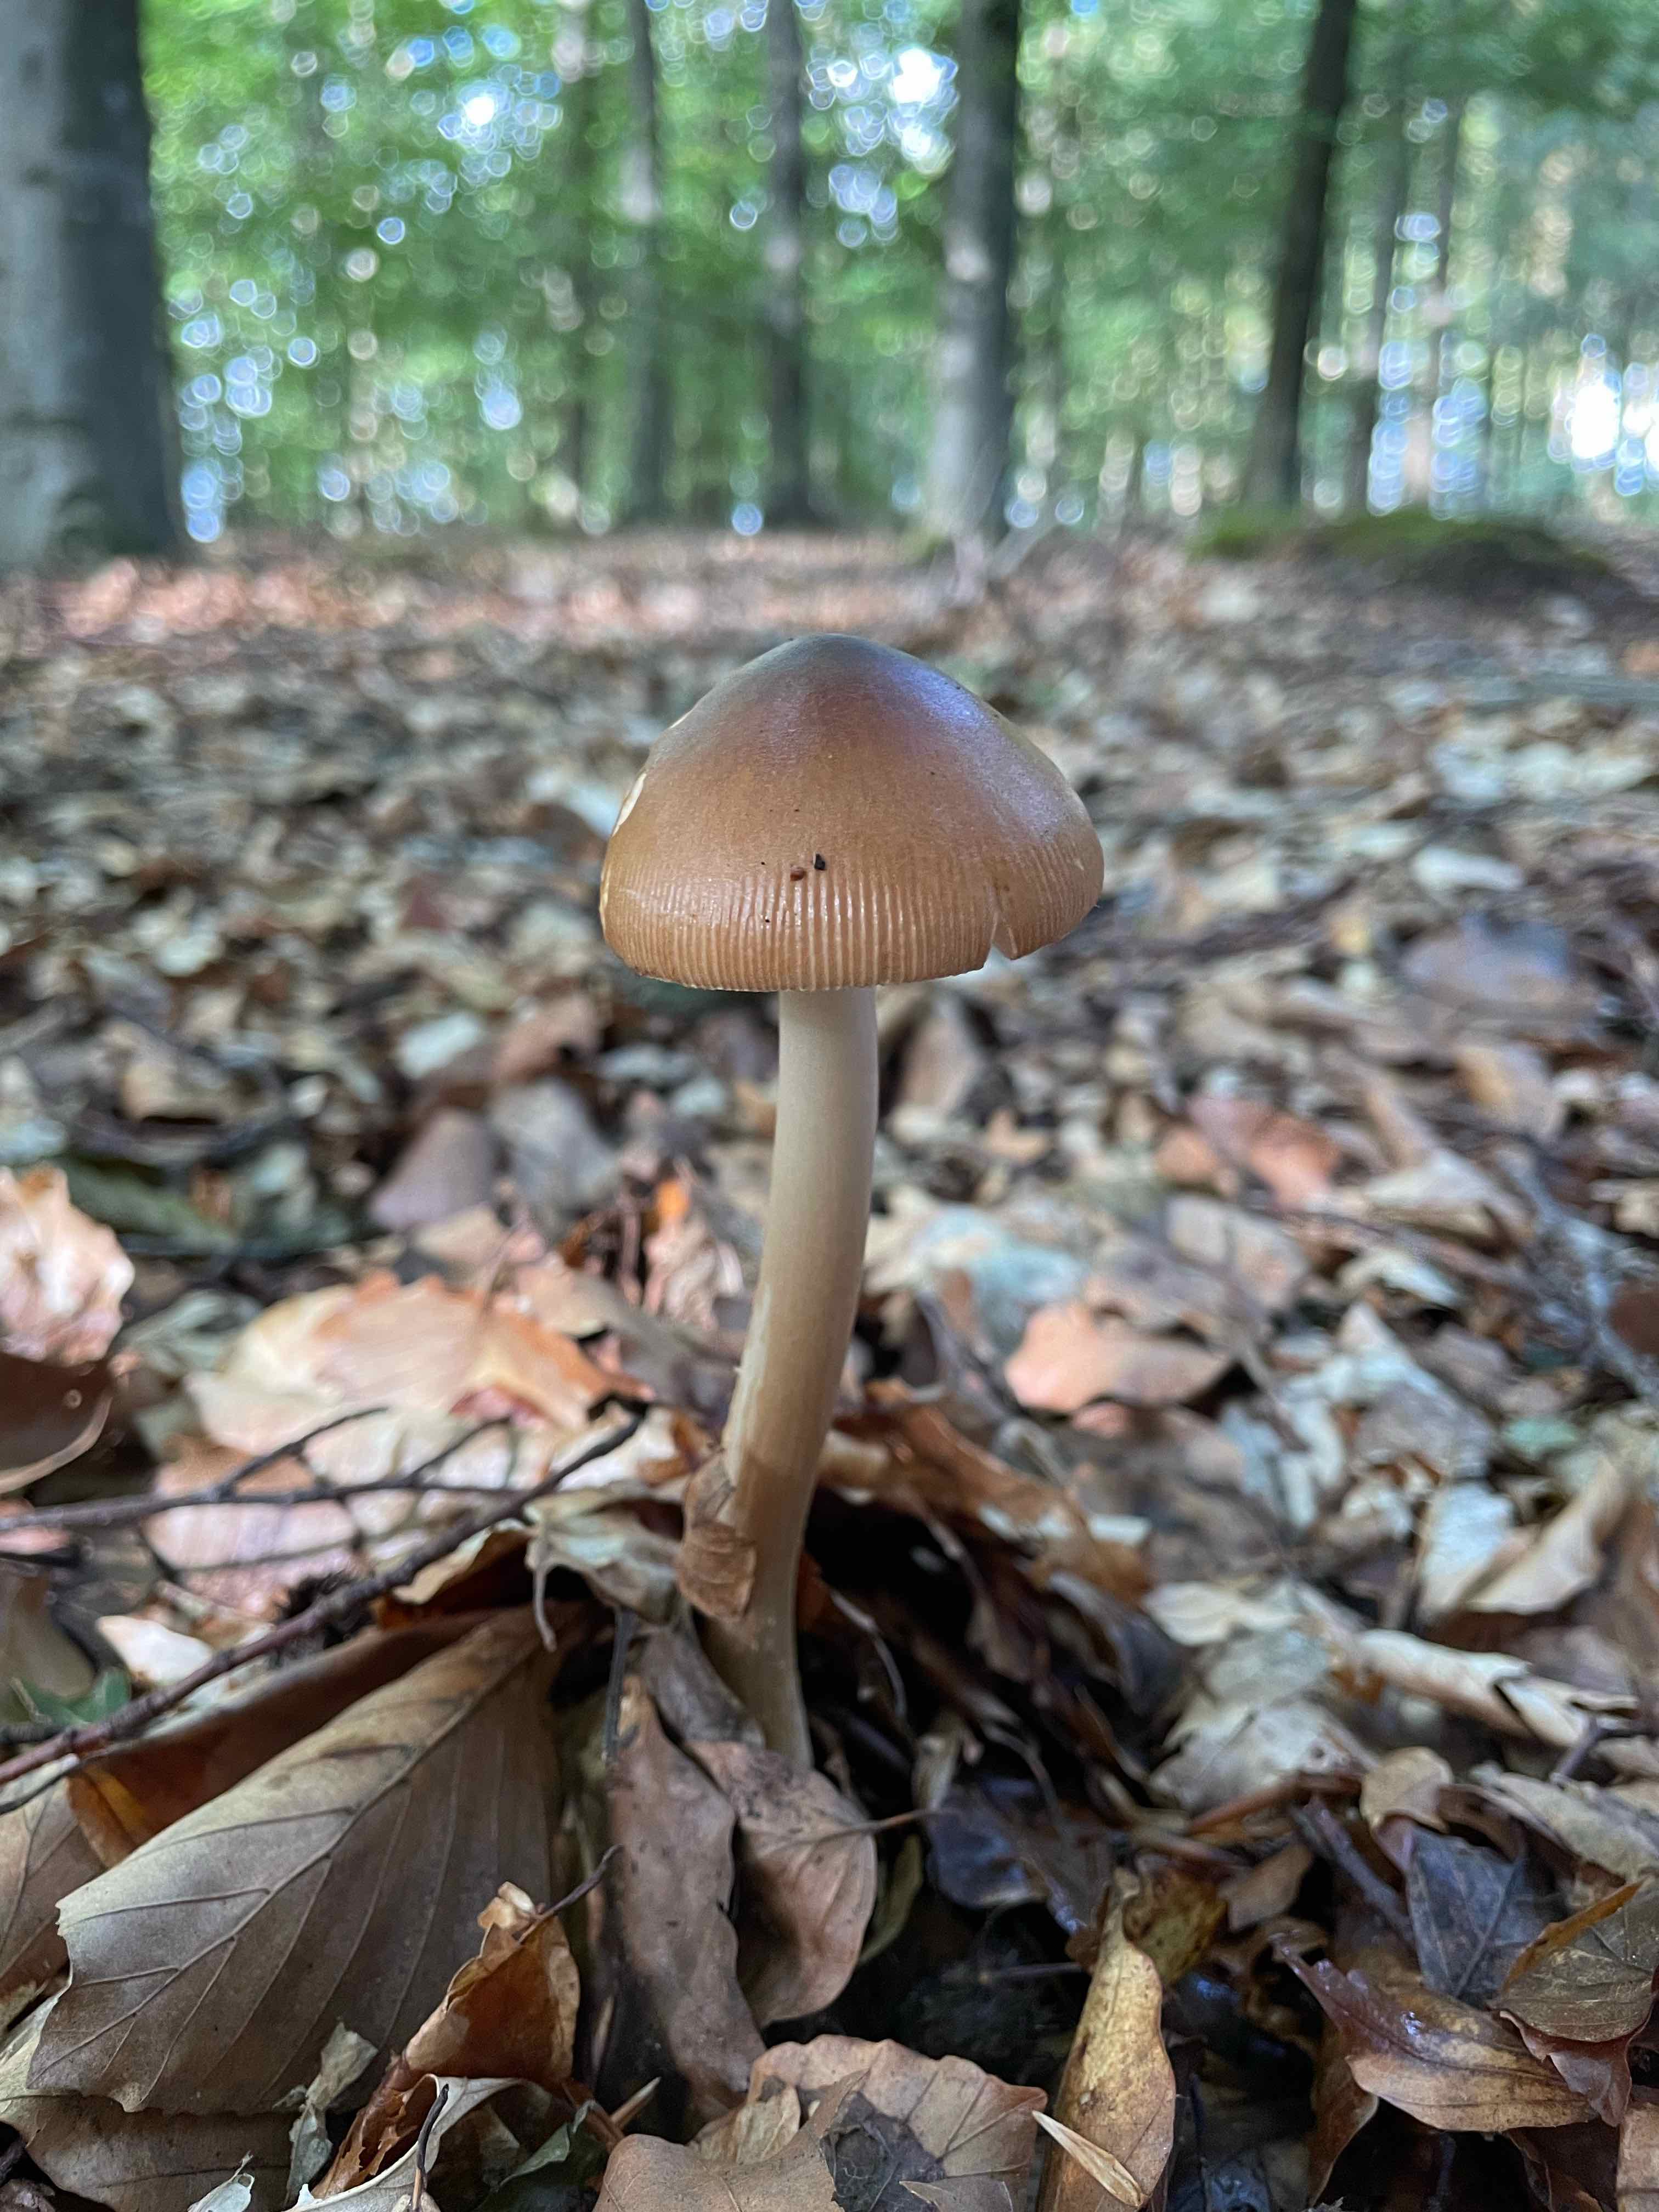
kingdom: Fungi
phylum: Basidiomycota
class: Agaricomycetes
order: Agaricales
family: Amanitaceae
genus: Amanita
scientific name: Amanita fulva
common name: brun kam-fluesvamp
